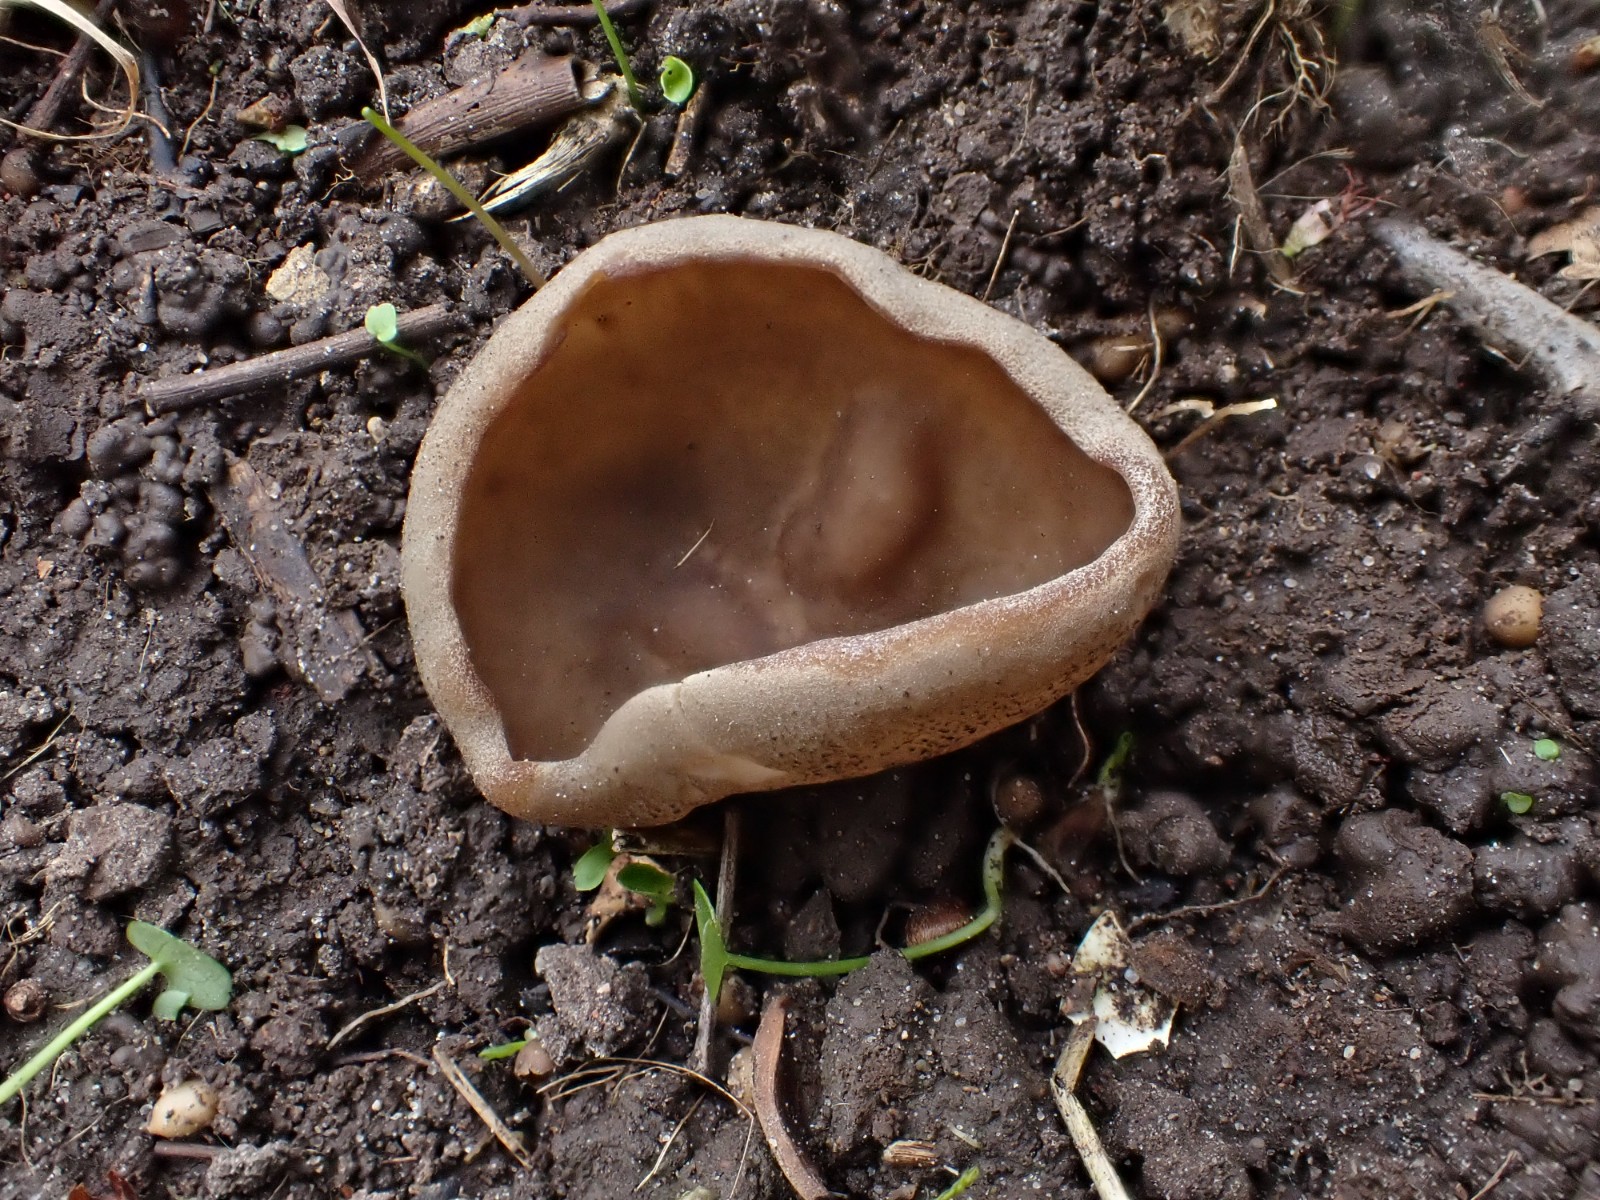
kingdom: Fungi
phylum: Ascomycota
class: Pezizomycetes
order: Pezizales
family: Morchellaceae
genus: Disciotis
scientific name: Disciotis venosa
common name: klor-bægermorkel
